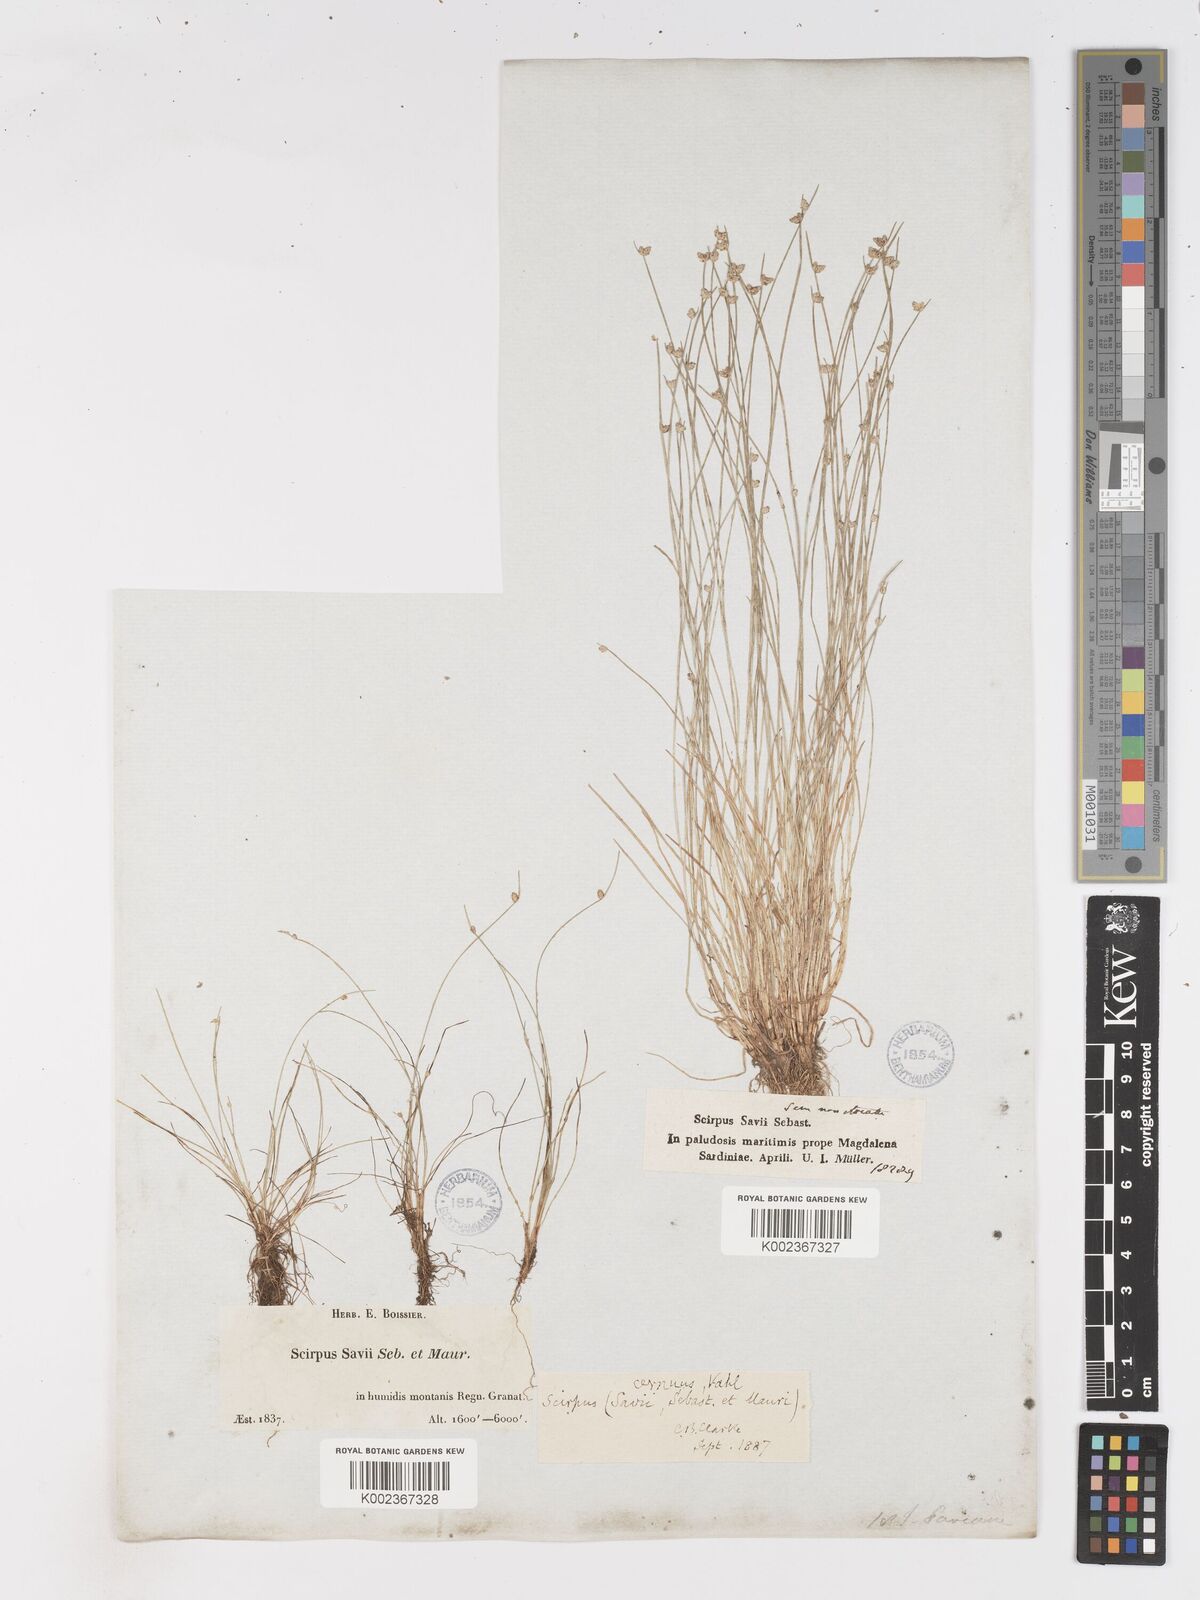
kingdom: Plantae
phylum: Tracheophyta
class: Liliopsida
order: Poales
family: Cyperaceae
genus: Isolepis
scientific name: Isolepis cernua
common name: Slender club-rush
